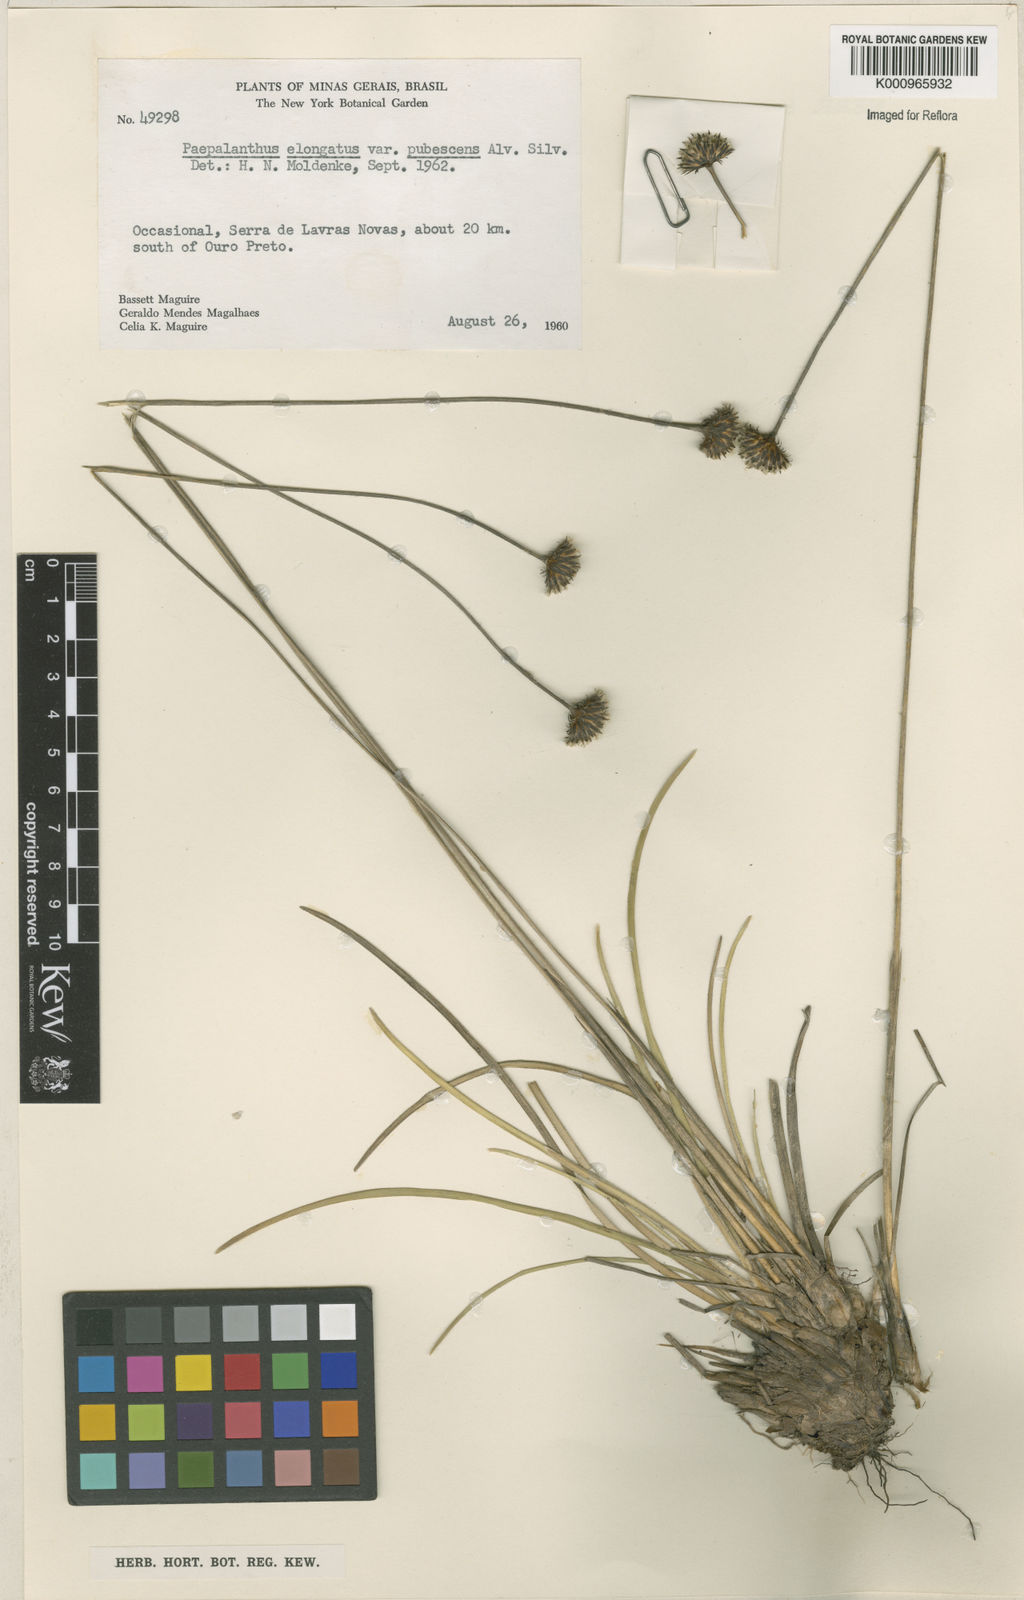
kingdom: Plantae
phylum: Tracheophyta
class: Liliopsida
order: Poales
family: Eriocaulaceae
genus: Paepalanthus
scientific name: Paepalanthus
